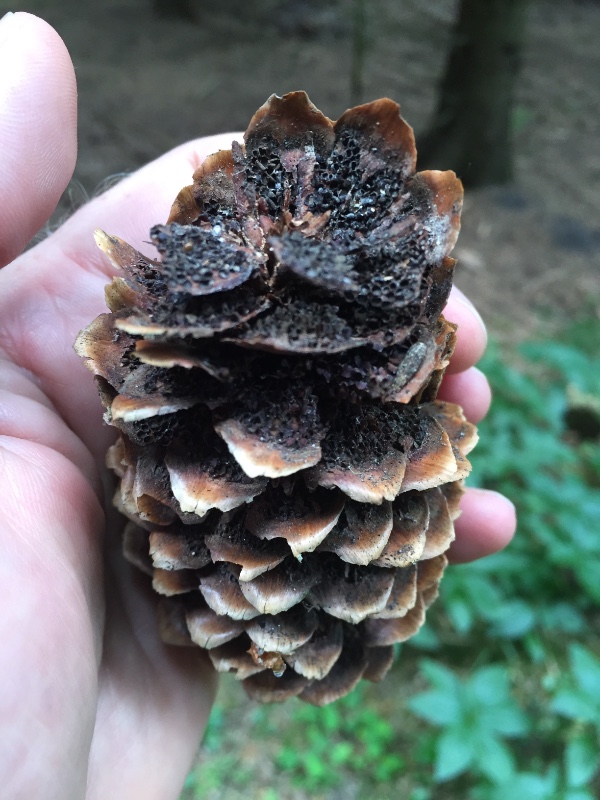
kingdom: Fungi
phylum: Basidiomycota
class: Pucciniomycetes
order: Pucciniales
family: Pucciniastraceae
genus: Thekopsora
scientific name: Thekopsora areolata
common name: grankogle-nålerust
